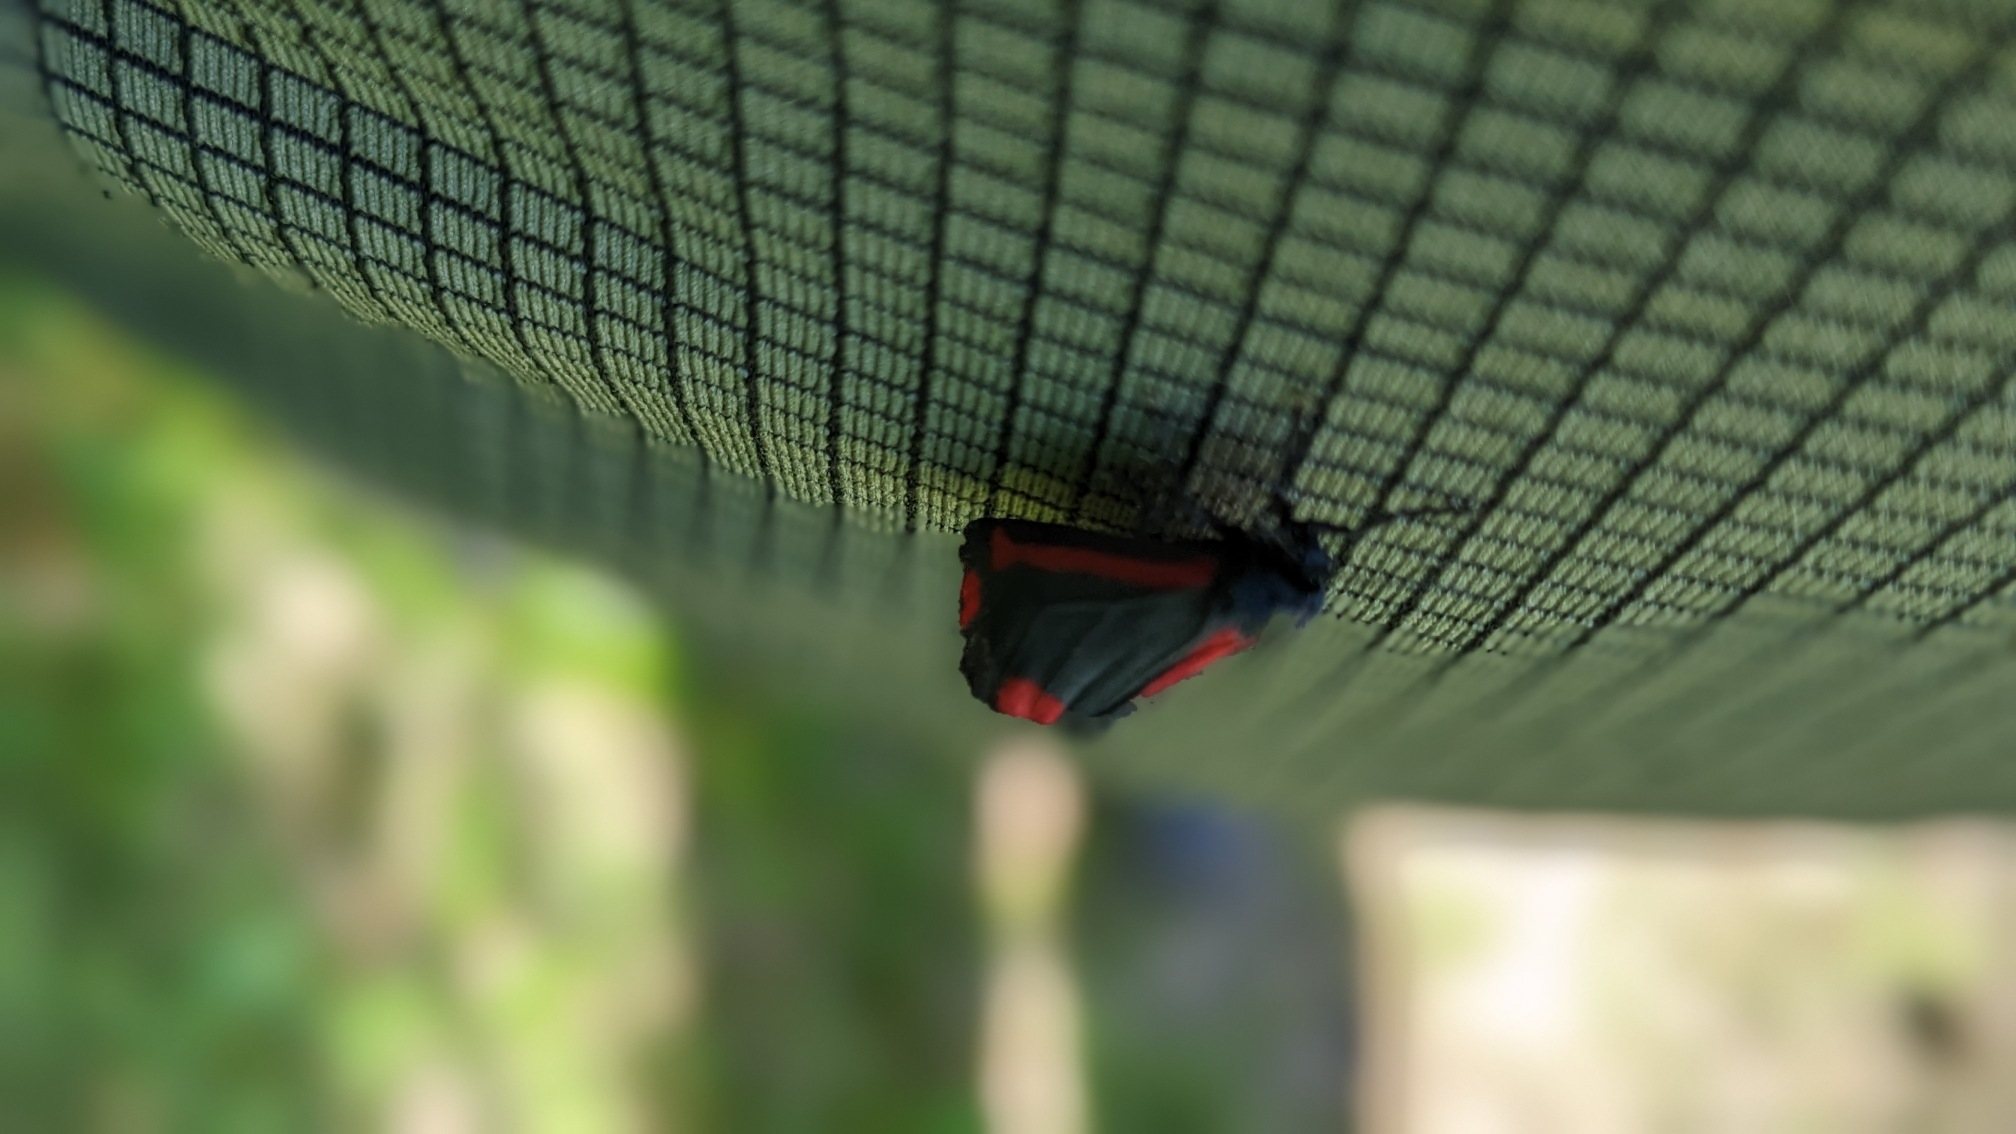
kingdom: Animalia
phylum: Arthropoda
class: Insecta
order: Lepidoptera
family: Erebidae
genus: Tyria
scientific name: Tyria jacobaeae
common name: Blodplet
